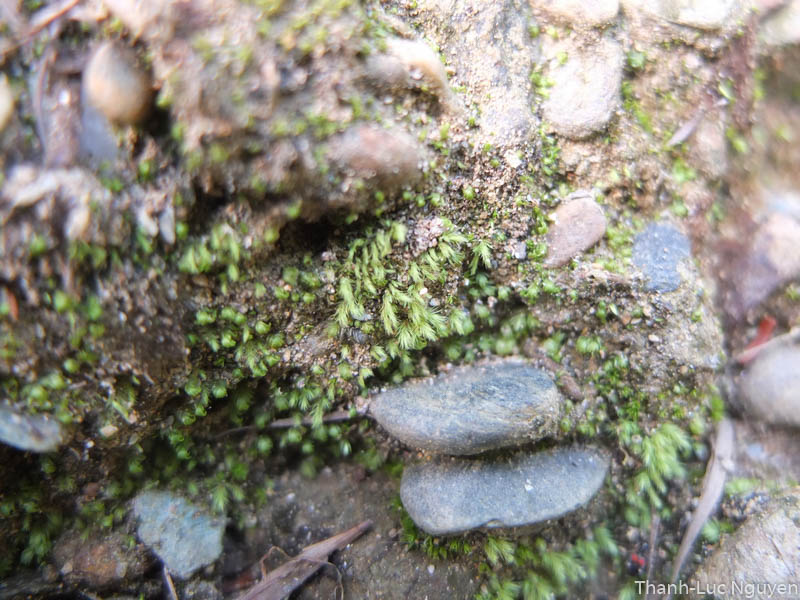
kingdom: Plantae
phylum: Bryophyta
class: Bryopsida
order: Bartramiales
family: Bartramiaceae
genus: Philonotis
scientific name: Philonotis pseudomollis
